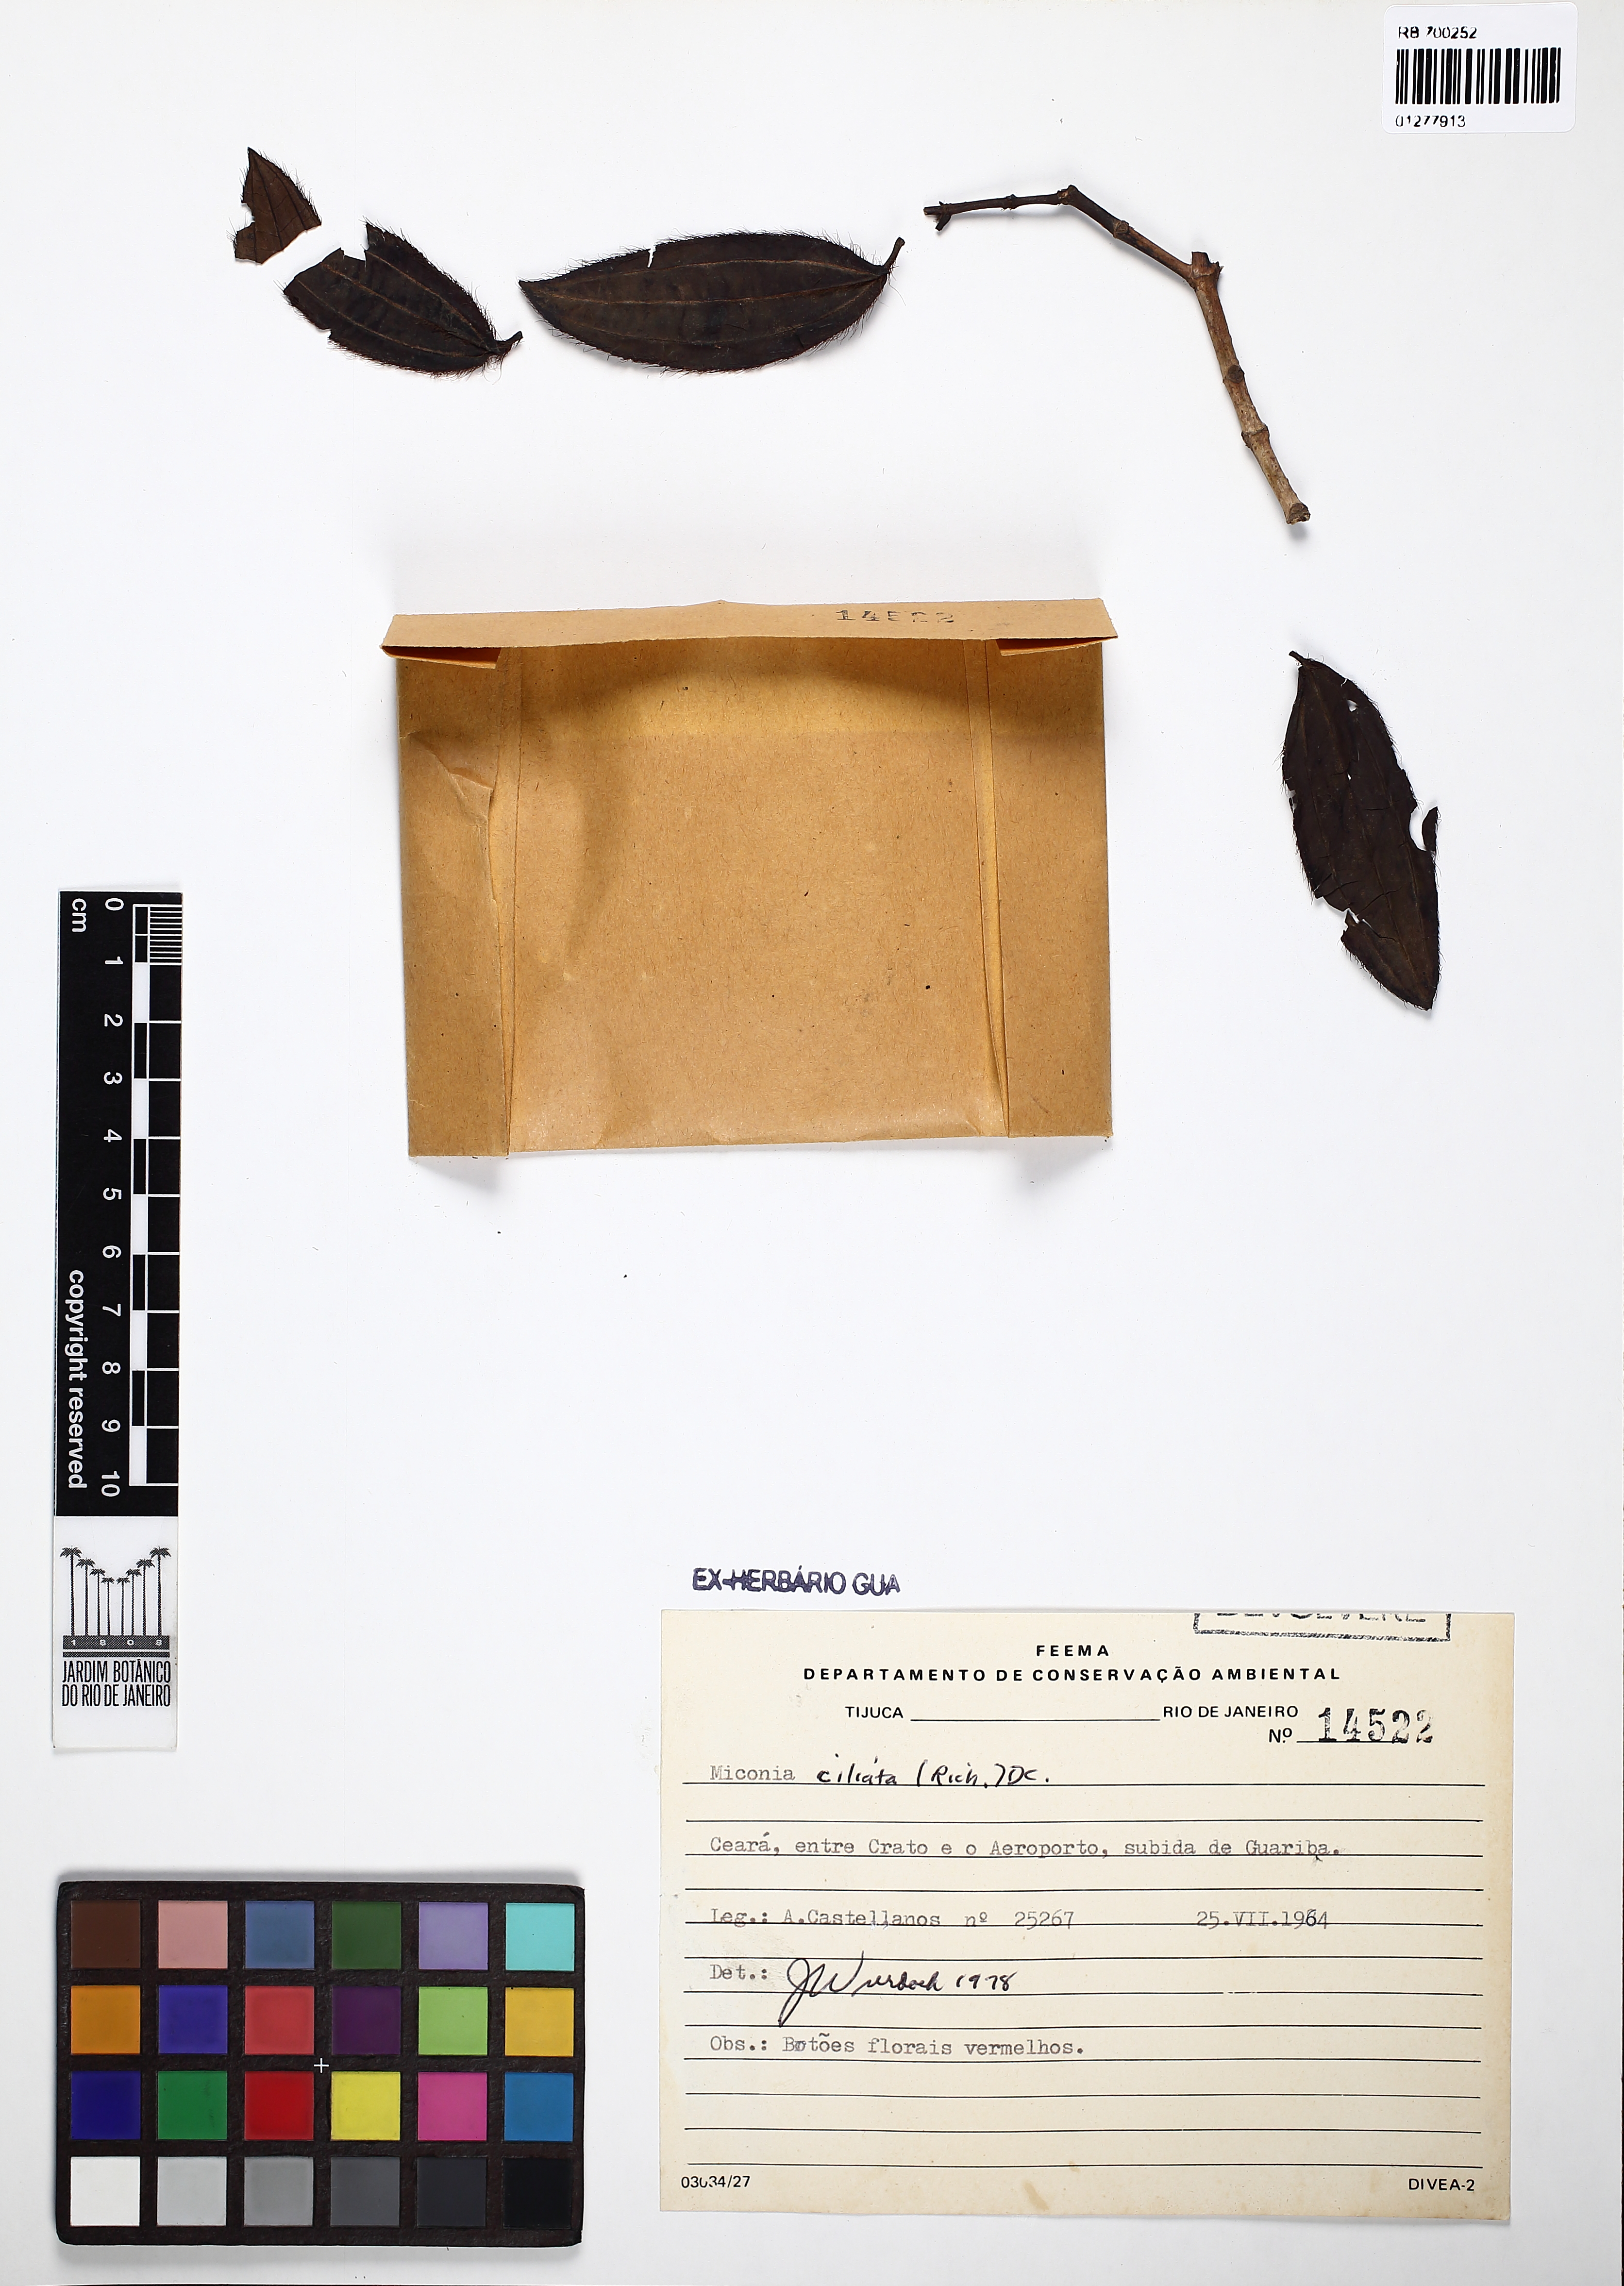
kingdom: Plantae
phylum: Tracheophyta
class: Magnoliopsida
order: Myrtales
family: Melastomataceae
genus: Miconia
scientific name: Miconia ciliata
